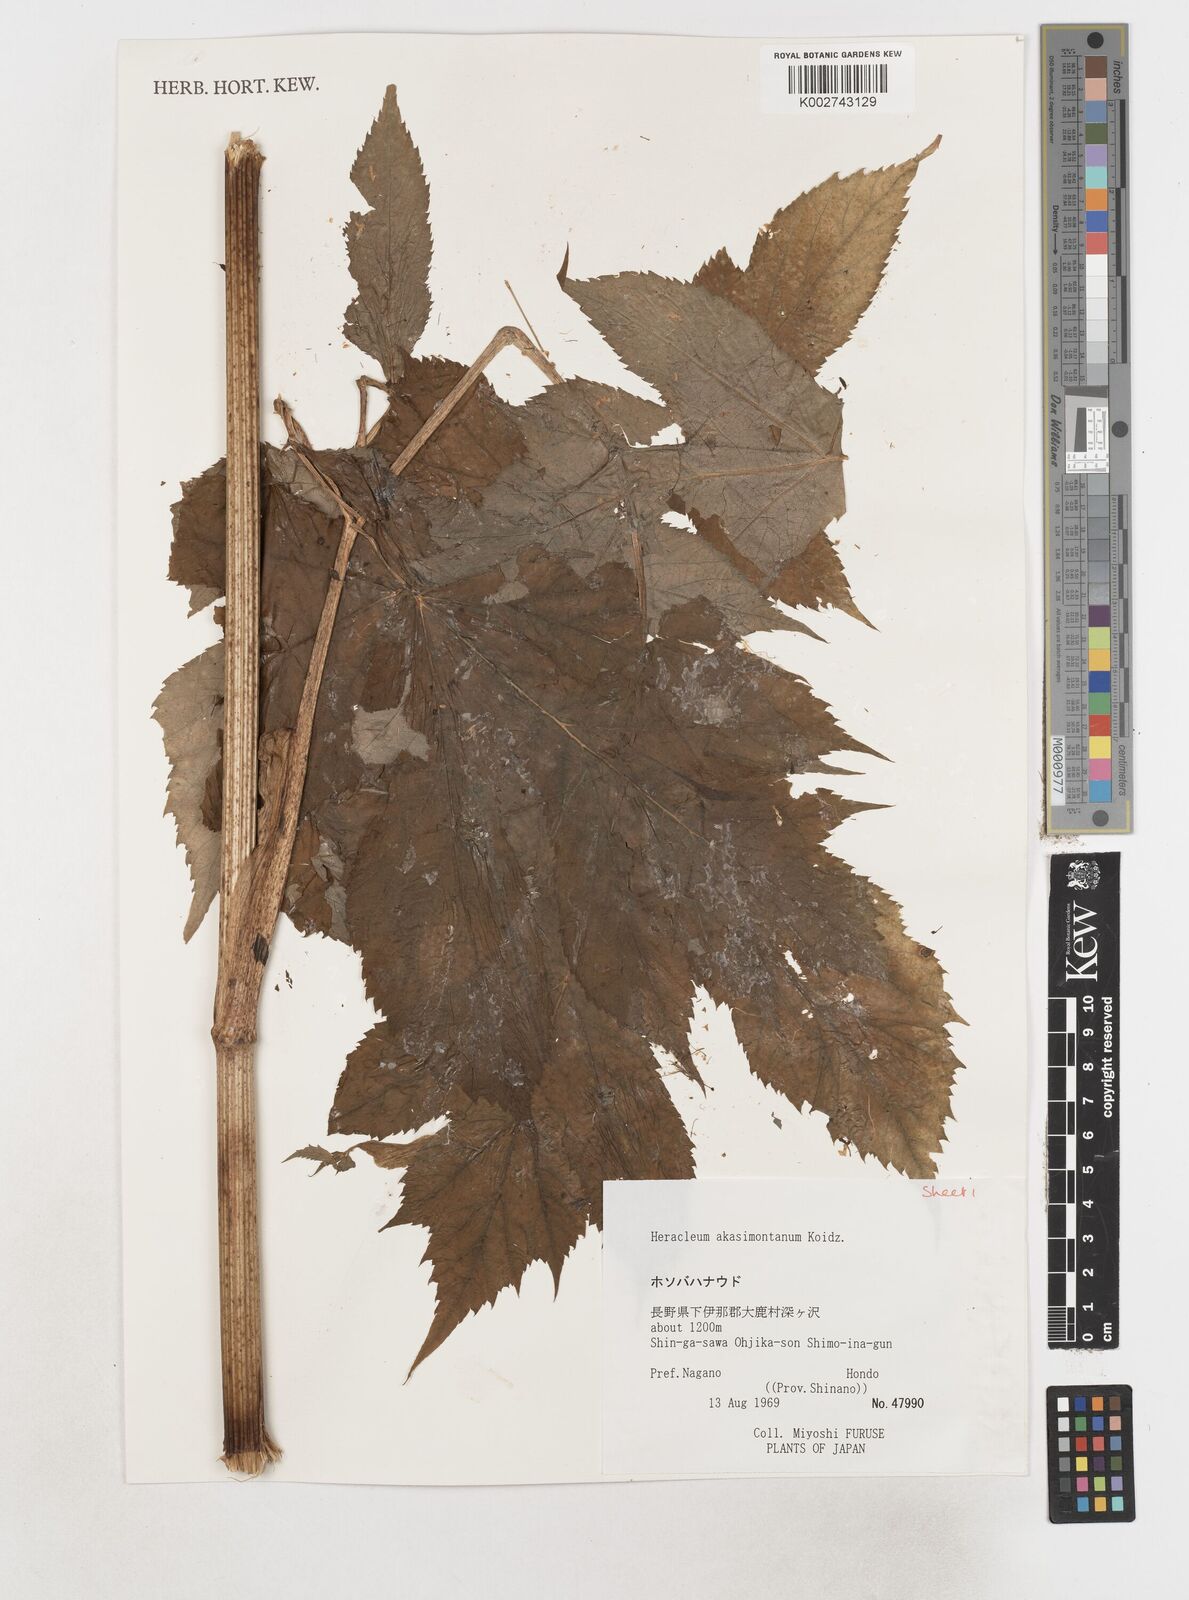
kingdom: Plantae
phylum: Tracheophyta
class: Magnoliopsida
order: Apiales
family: Apiaceae
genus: Heracleum
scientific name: Heracleum akasimontanum
